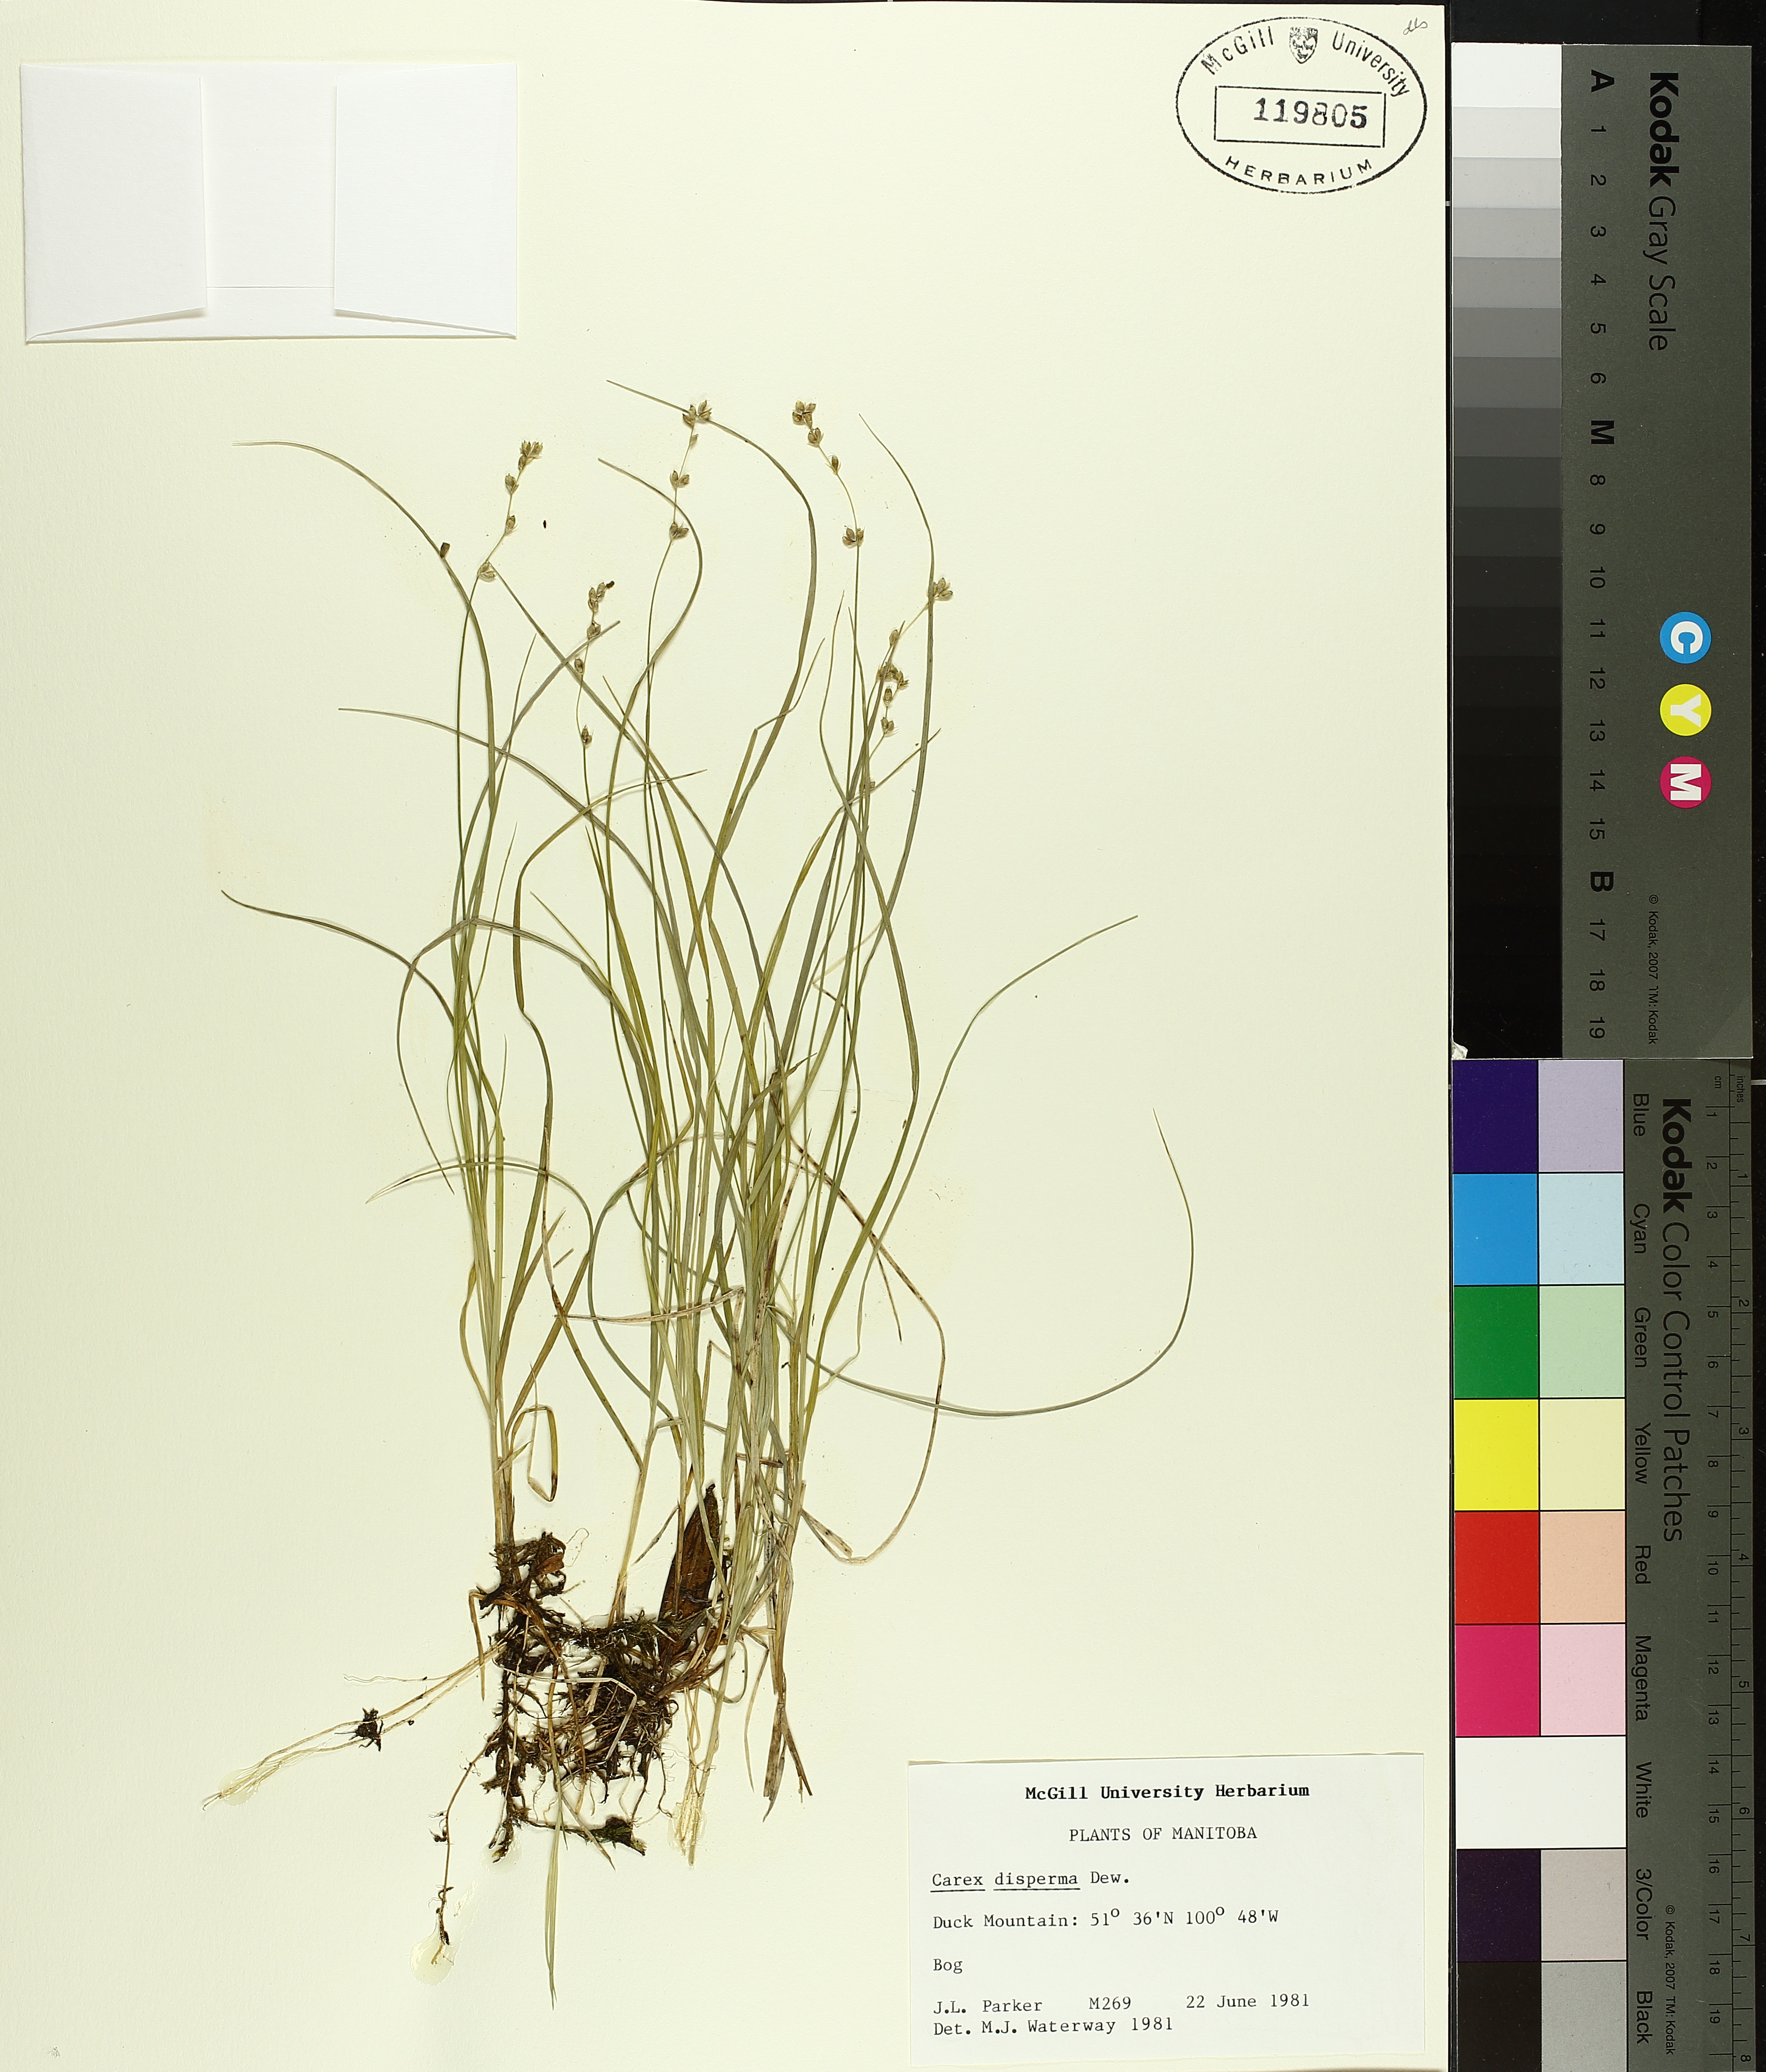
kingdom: Plantae
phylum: Tracheophyta
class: Liliopsida
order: Poales
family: Cyperaceae
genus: Carex
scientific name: Carex disperma
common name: Short-leaved sedge
